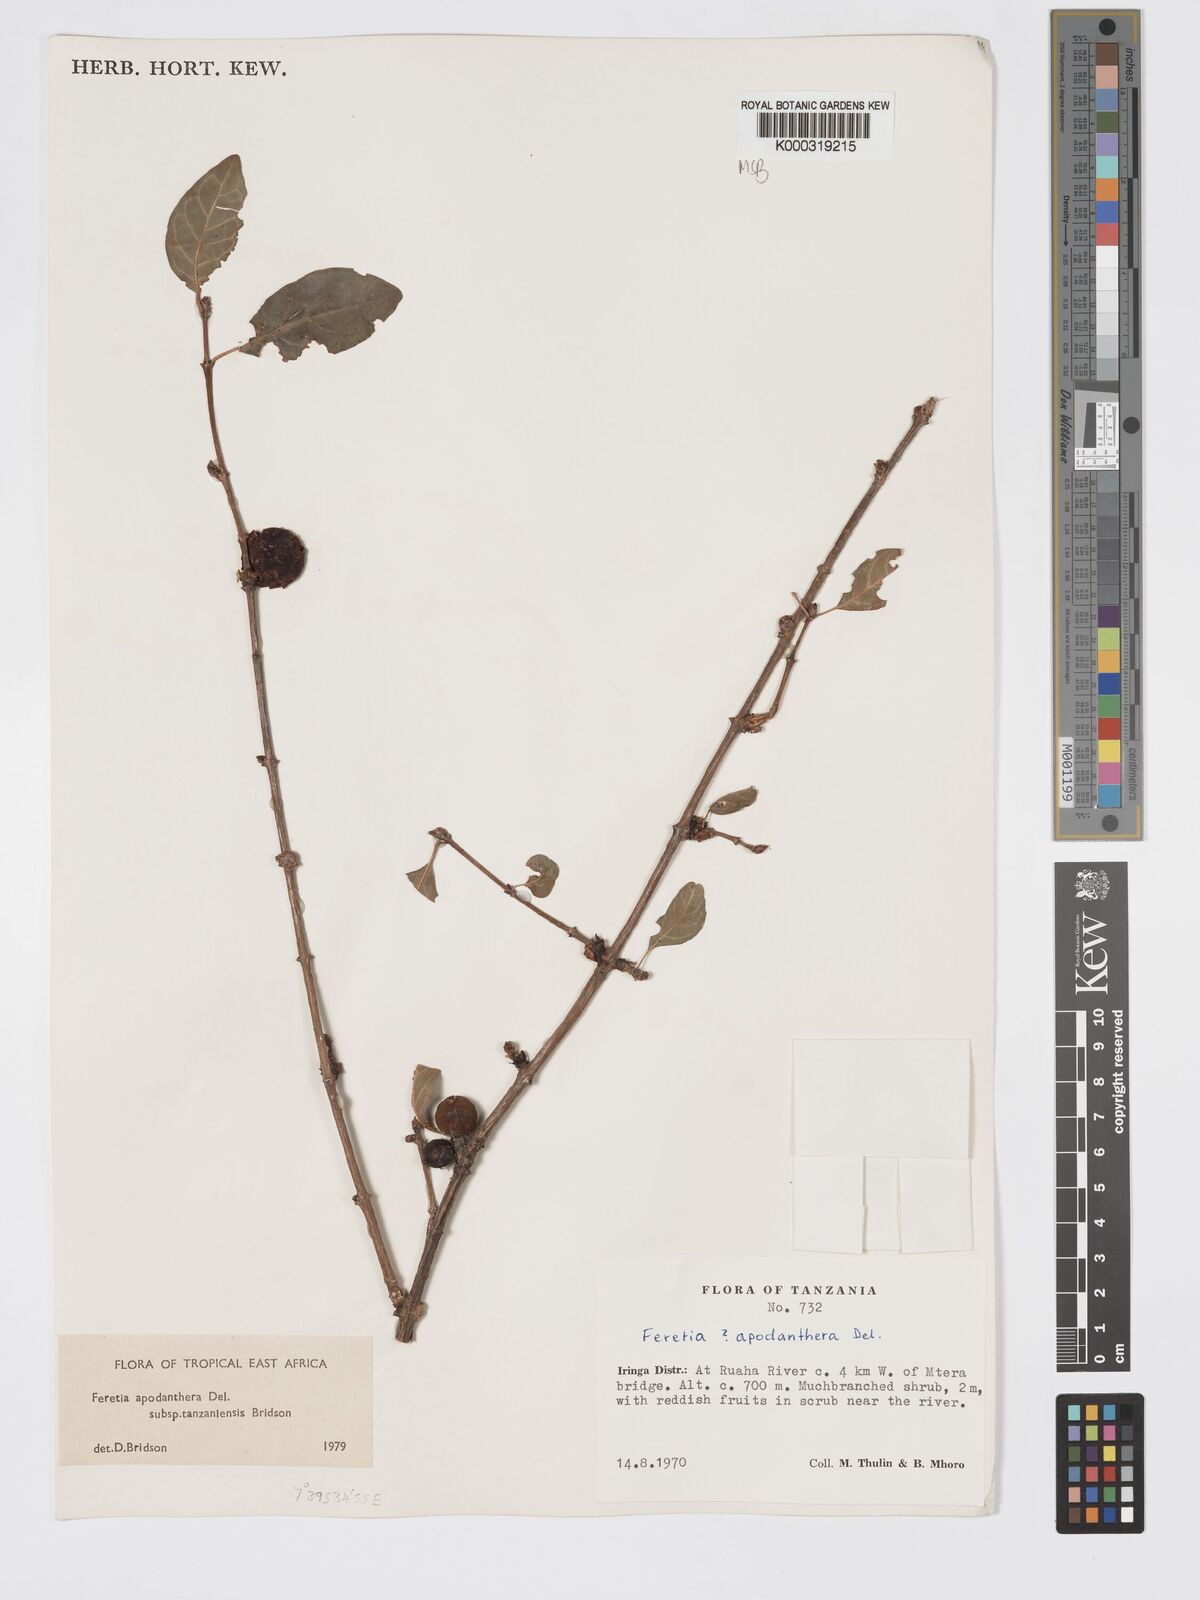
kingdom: Plantae
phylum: Tracheophyta
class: Magnoliopsida
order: Gentianales
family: Rubiaceae
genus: Feretia
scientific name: Feretia apodanthera
